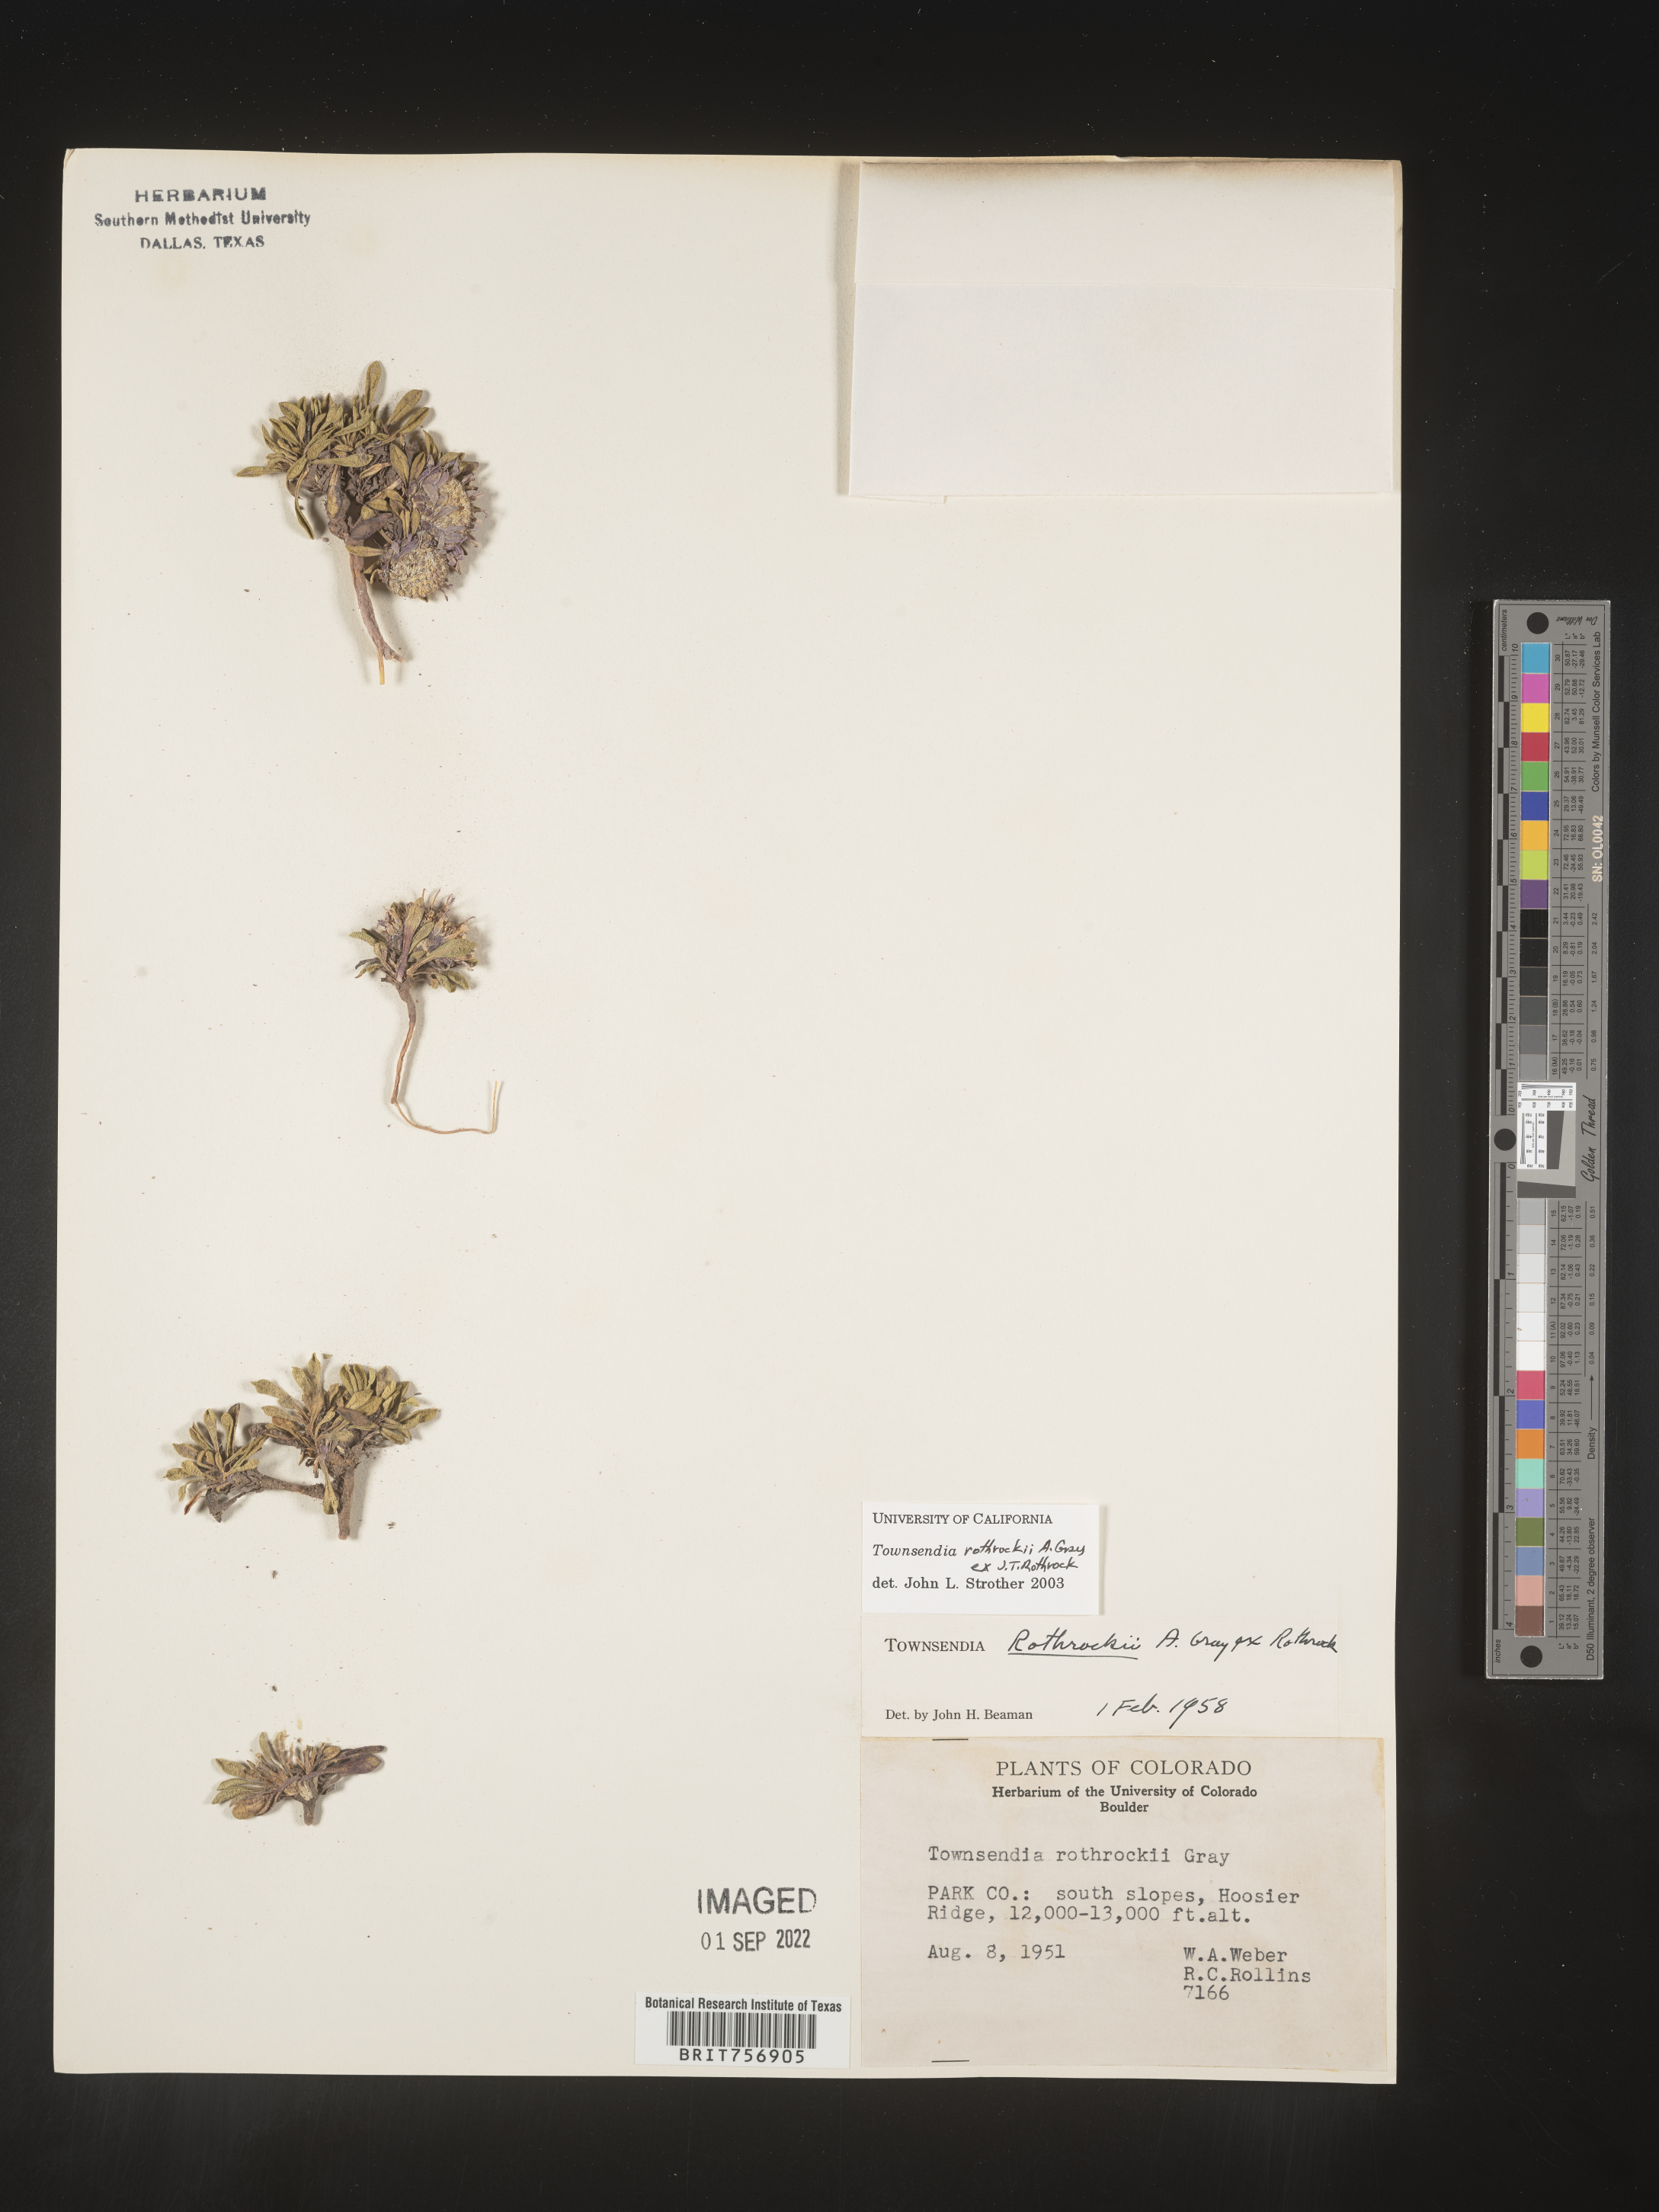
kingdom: Plantae
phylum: Tracheophyta
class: Magnoliopsida
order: Asterales
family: Asteraceae
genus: Townsendia
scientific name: Townsendia rothrockii
